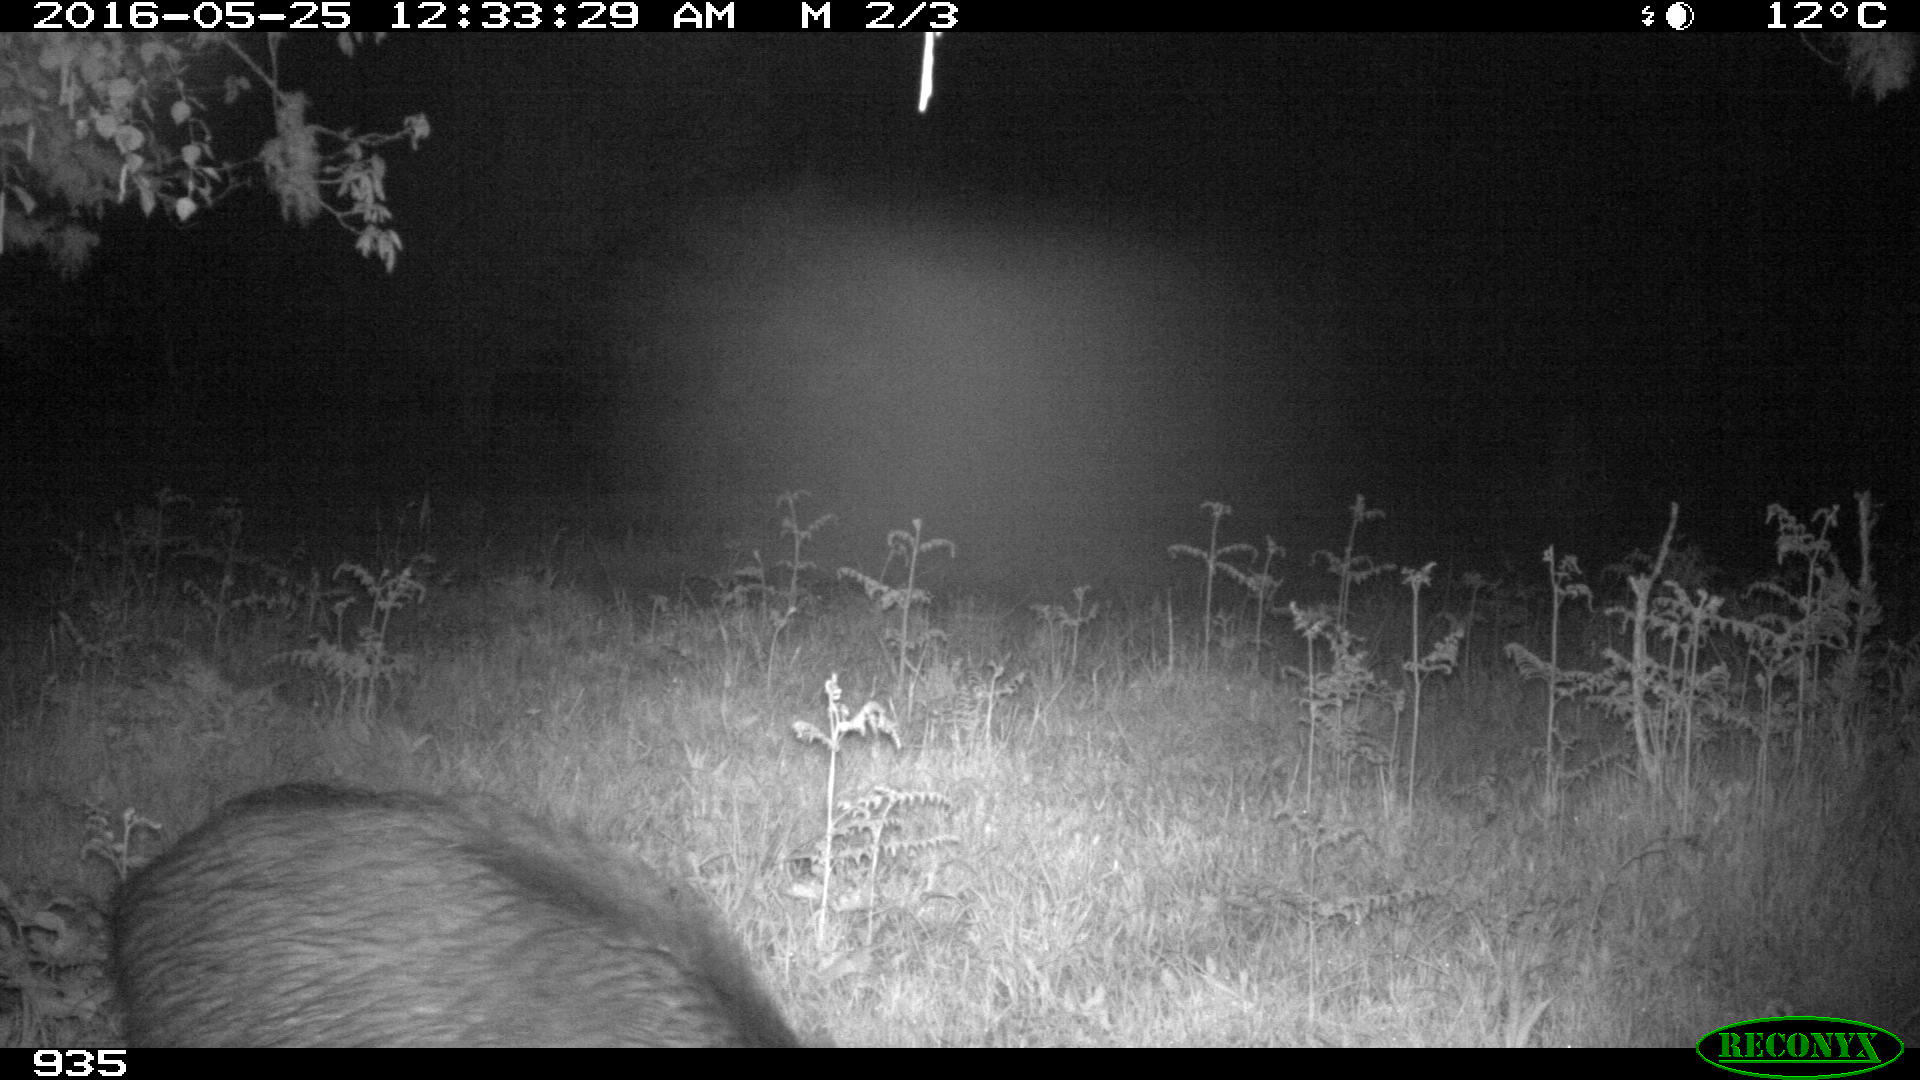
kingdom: Animalia
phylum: Chordata
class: Mammalia
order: Artiodactyla
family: Suidae
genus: Sus
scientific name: Sus scrofa
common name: Wild boar
